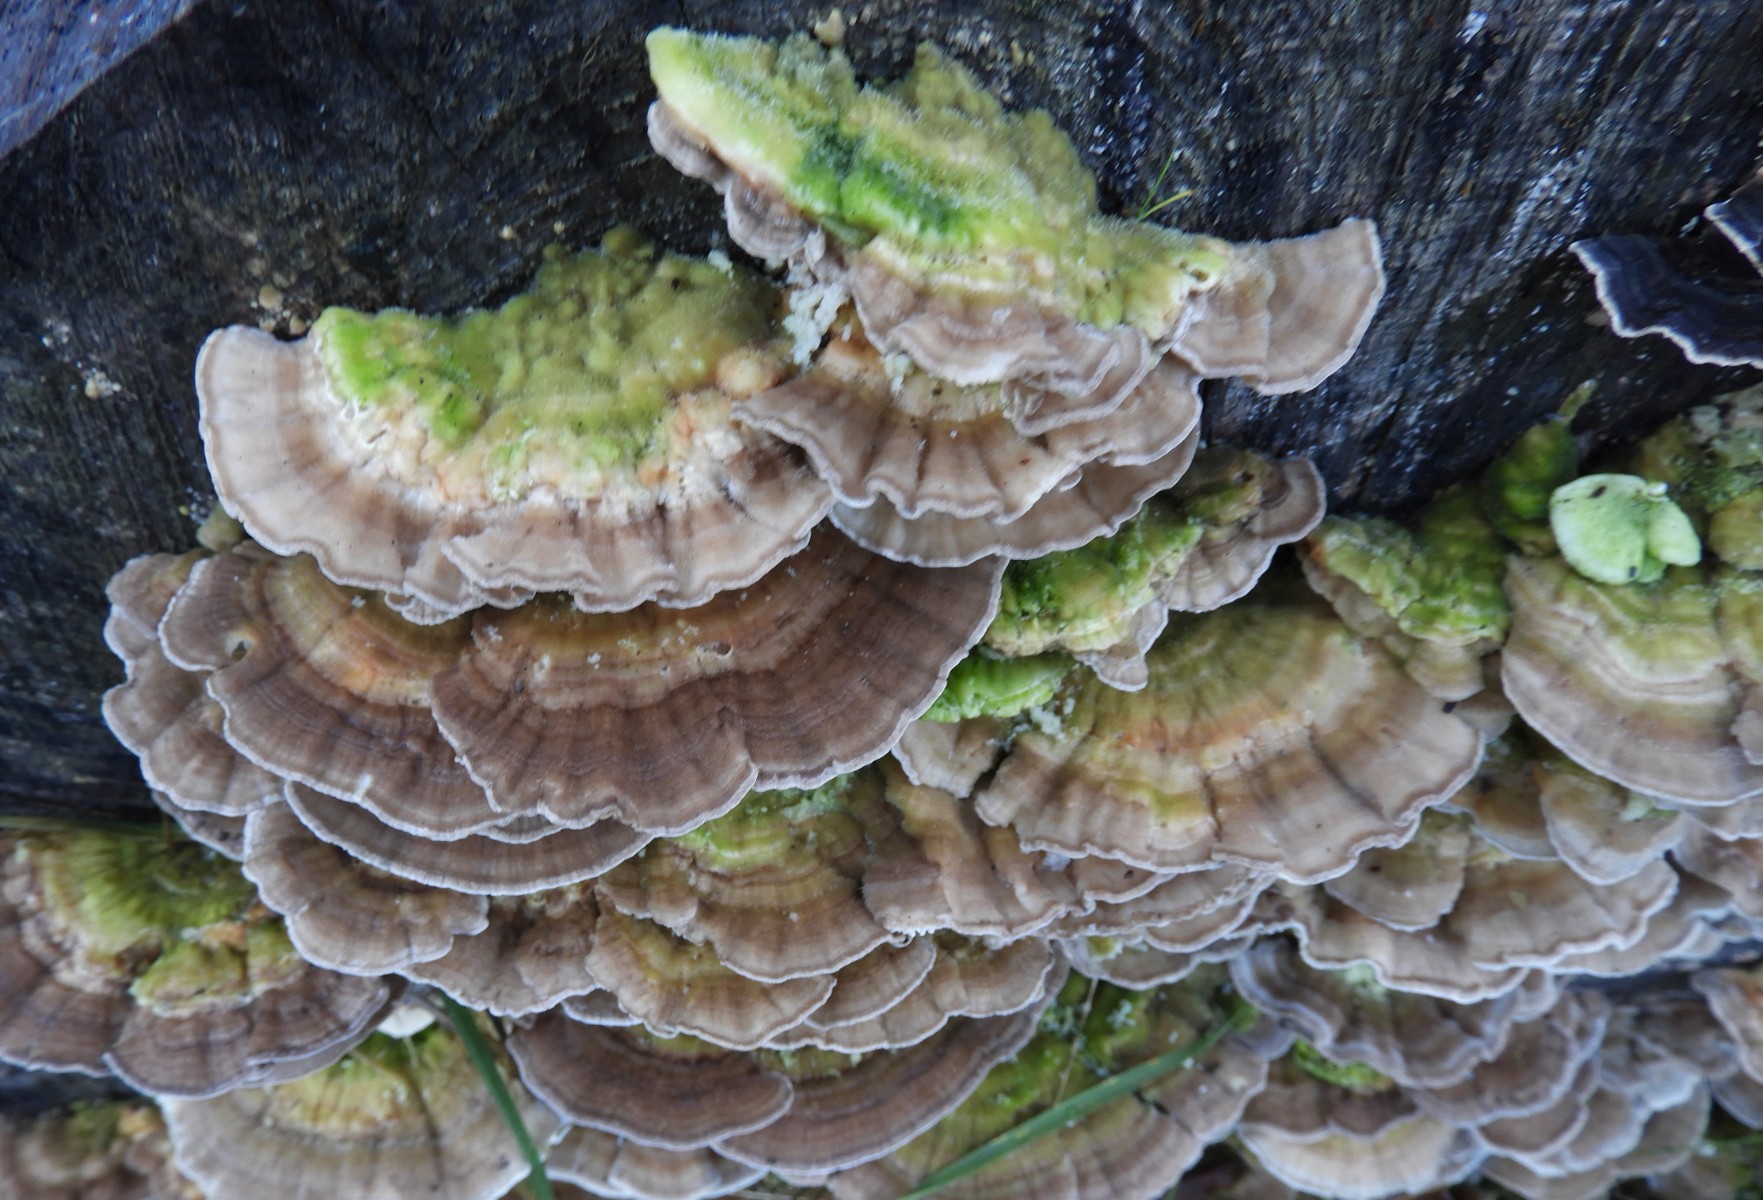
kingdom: Fungi
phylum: Basidiomycota
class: Agaricomycetes
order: Polyporales
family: Polyporaceae
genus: Lenzites
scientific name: Lenzites betulinus
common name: birke-læderporesvamp
